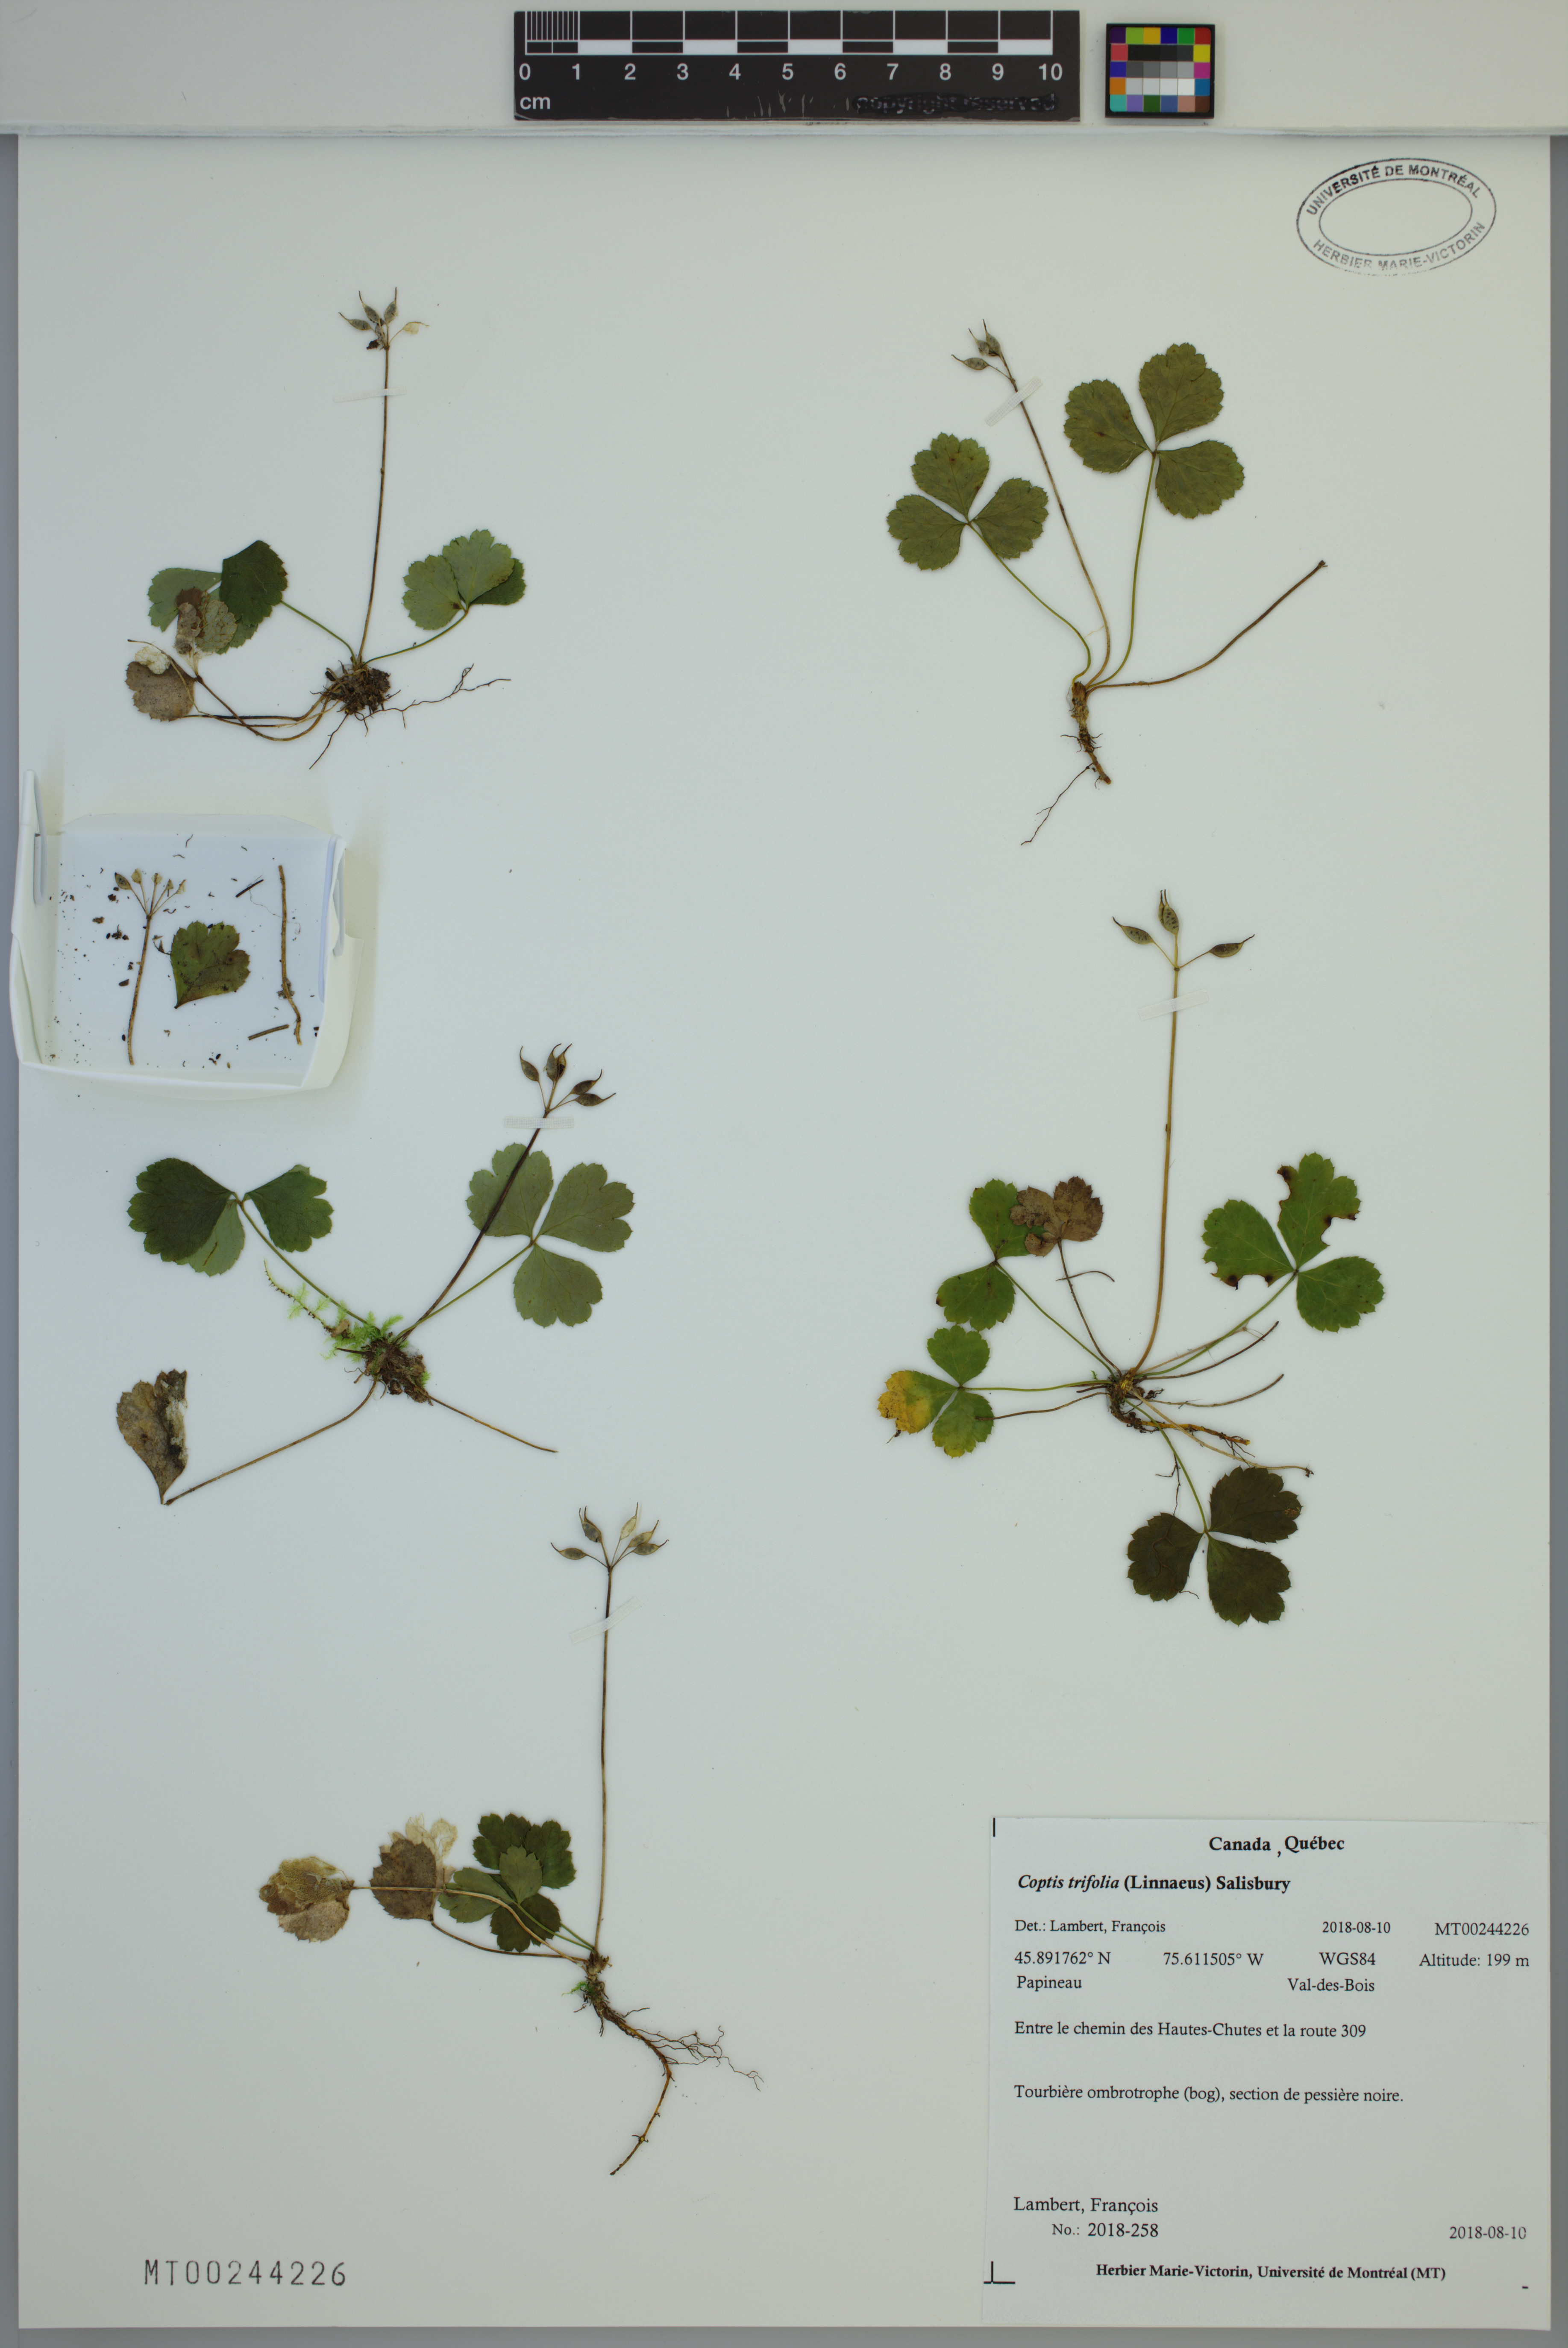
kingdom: Plantae
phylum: Tracheophyta
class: Magnoliopsida
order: Ranunculales
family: Ranunculaceae
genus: Coptis
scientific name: Coptis trifolia
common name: Canker-root
